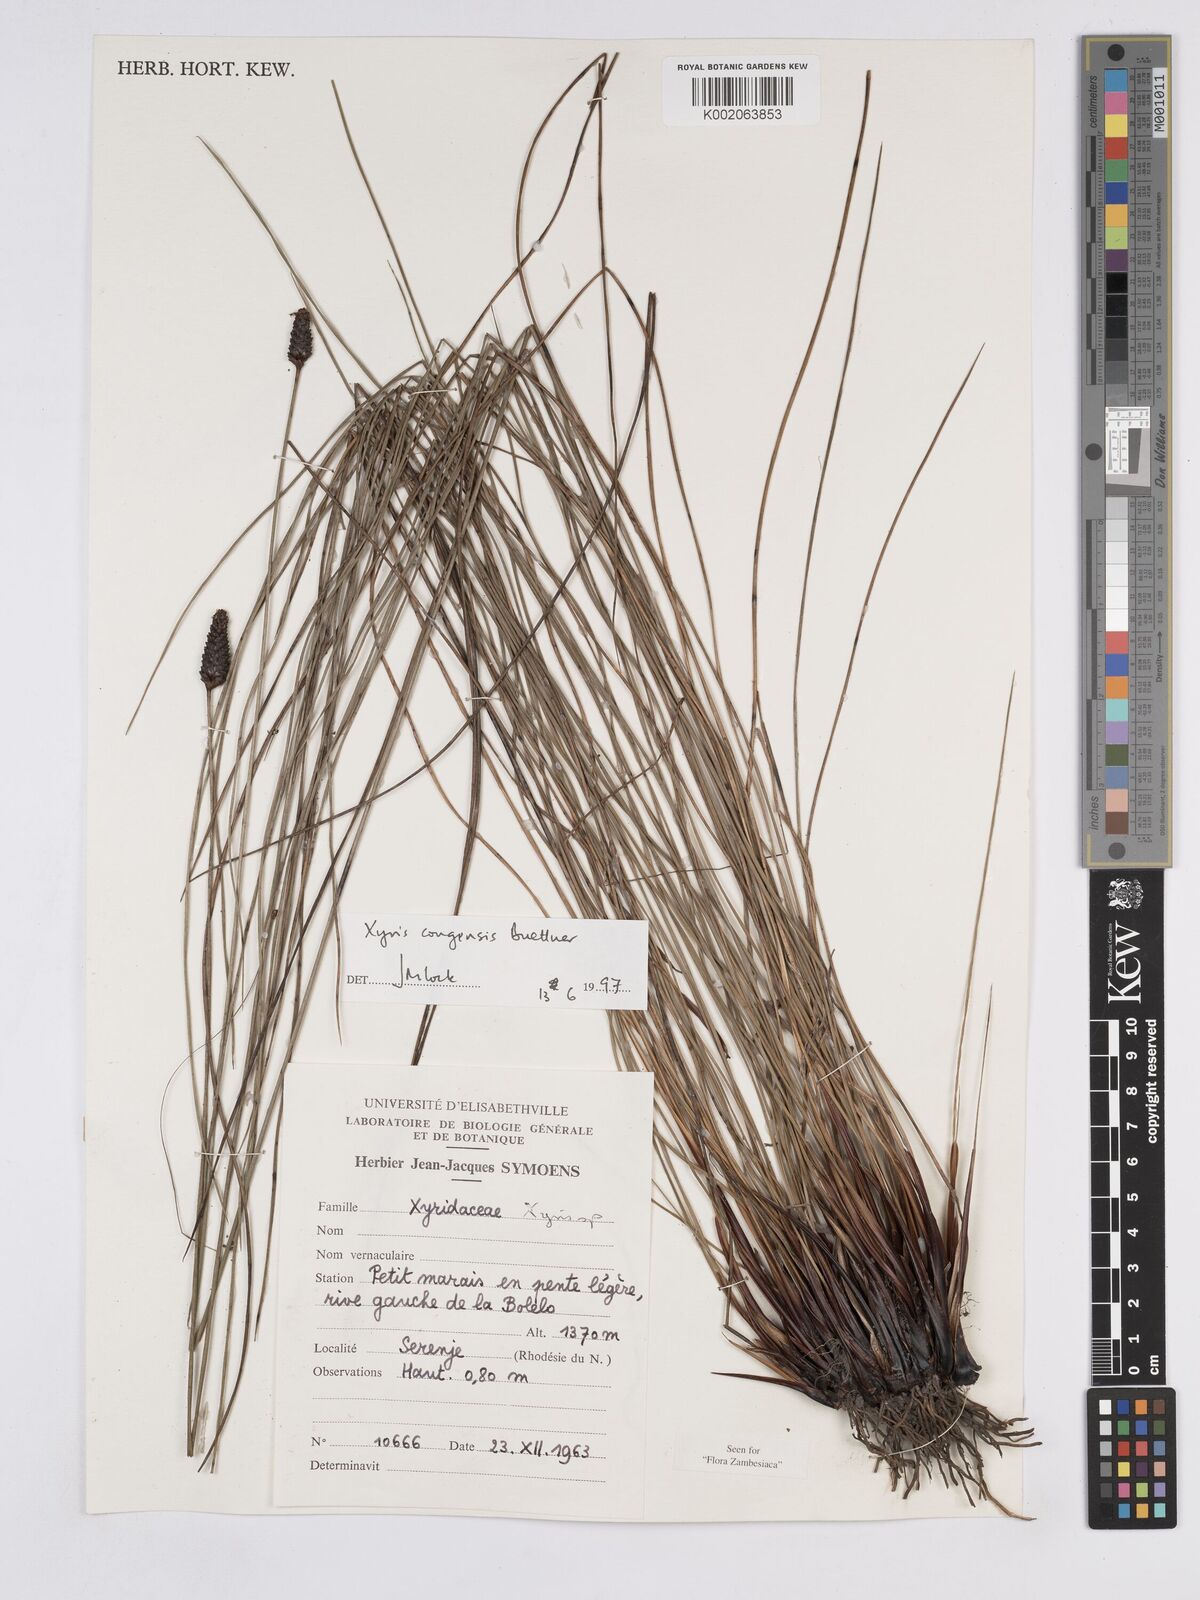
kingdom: Plantae
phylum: Tracheophyta
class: Liliopsida
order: Poales
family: Xyridaceae
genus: Xyris
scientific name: Xyris congensis
